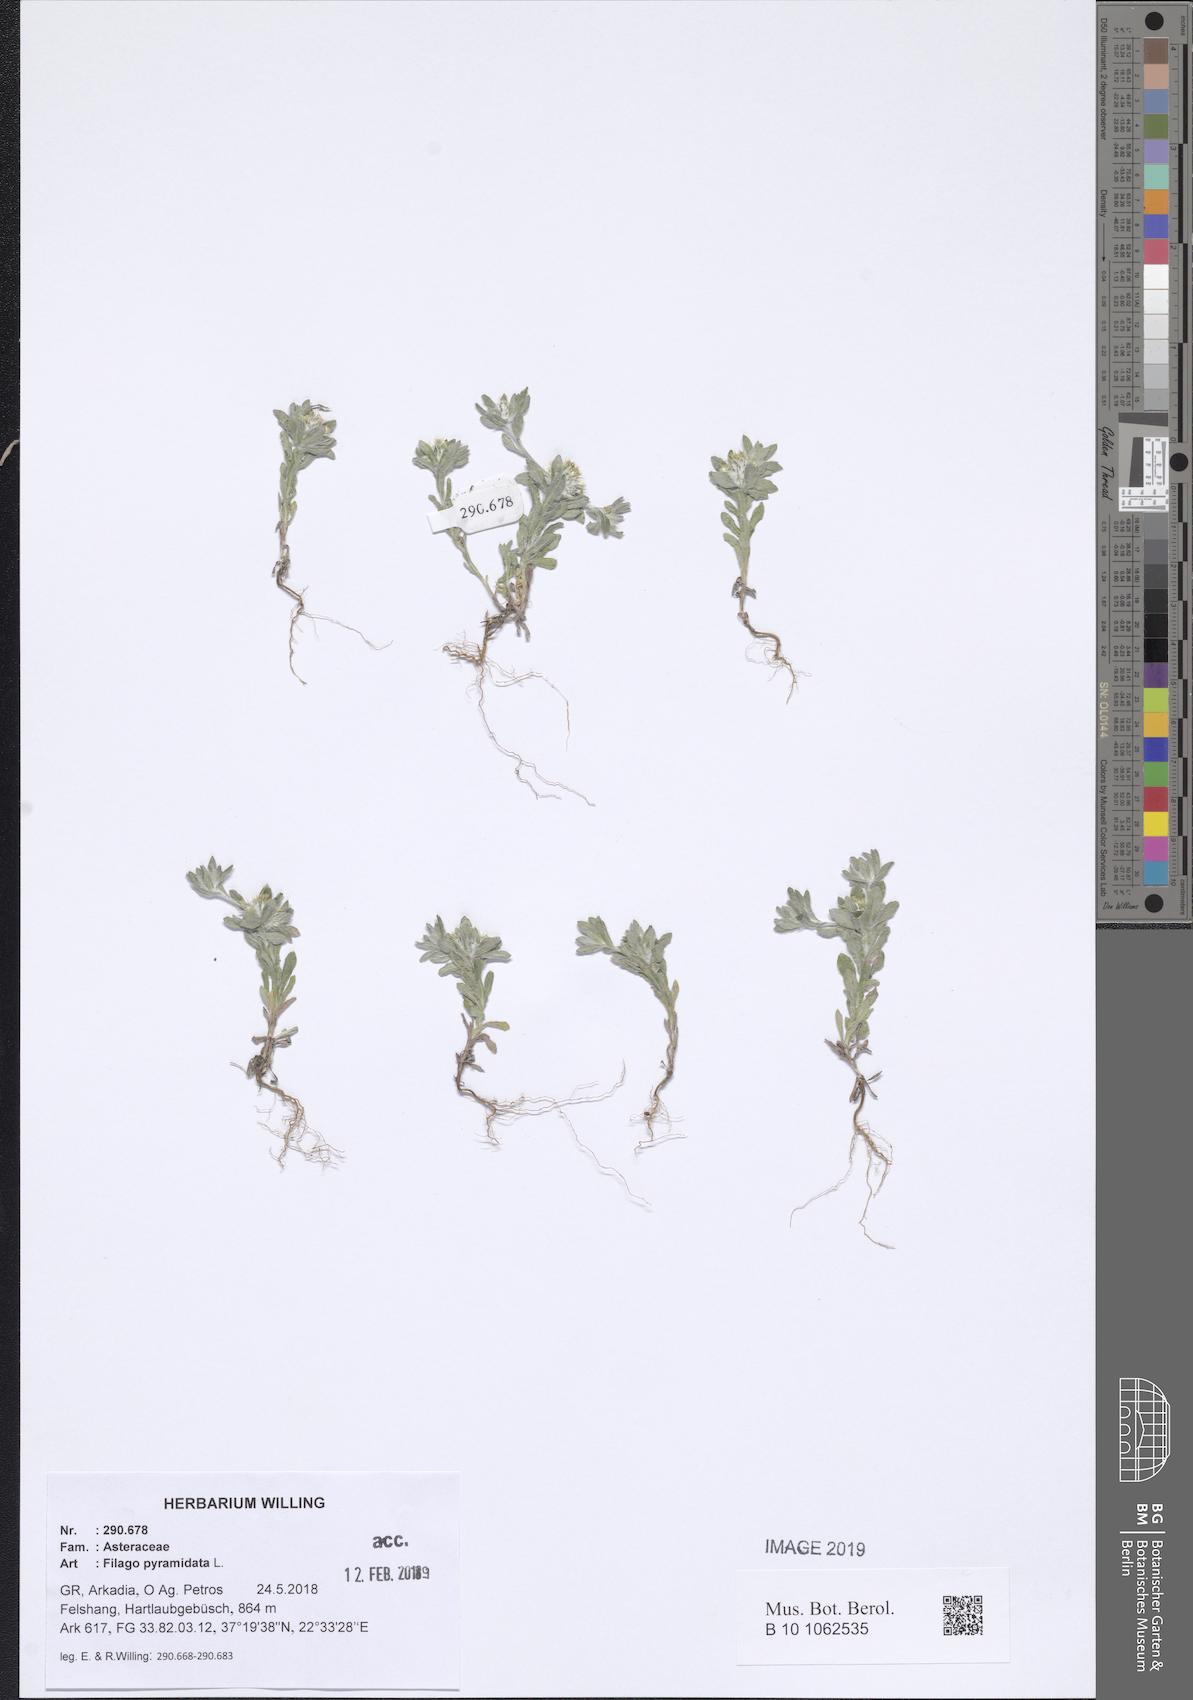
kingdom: Plantae
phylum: Tracheophyta
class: Magnoliopsida
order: Asterales
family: Asteraceae
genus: Filago
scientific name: Filago pyramidata
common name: Broad-leaved cudweed
